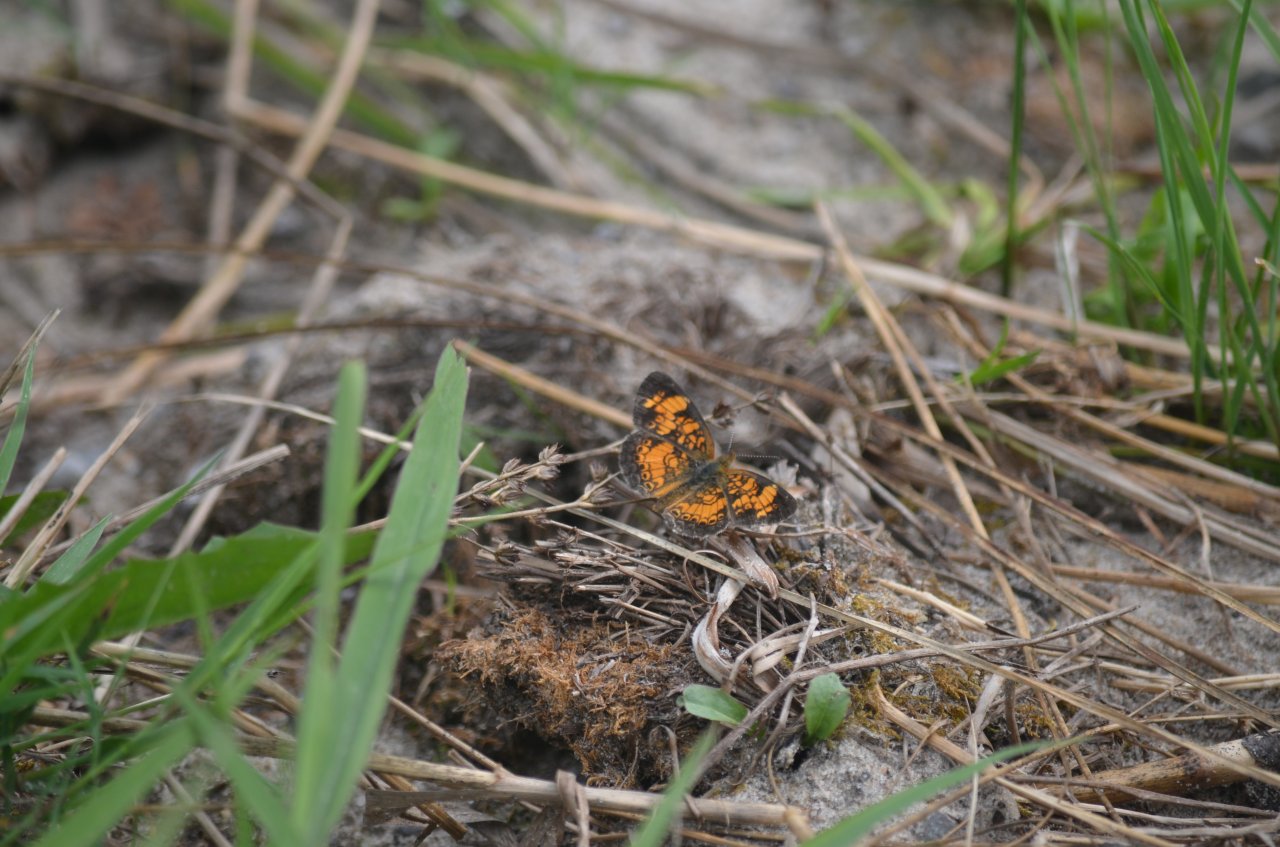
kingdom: Animalia
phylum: Arthropoda
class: Insecta
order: Lepidoptera
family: Nymphalidae
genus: Phyciodes
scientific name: Phyciodes tharos
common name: Pearl Crescent
